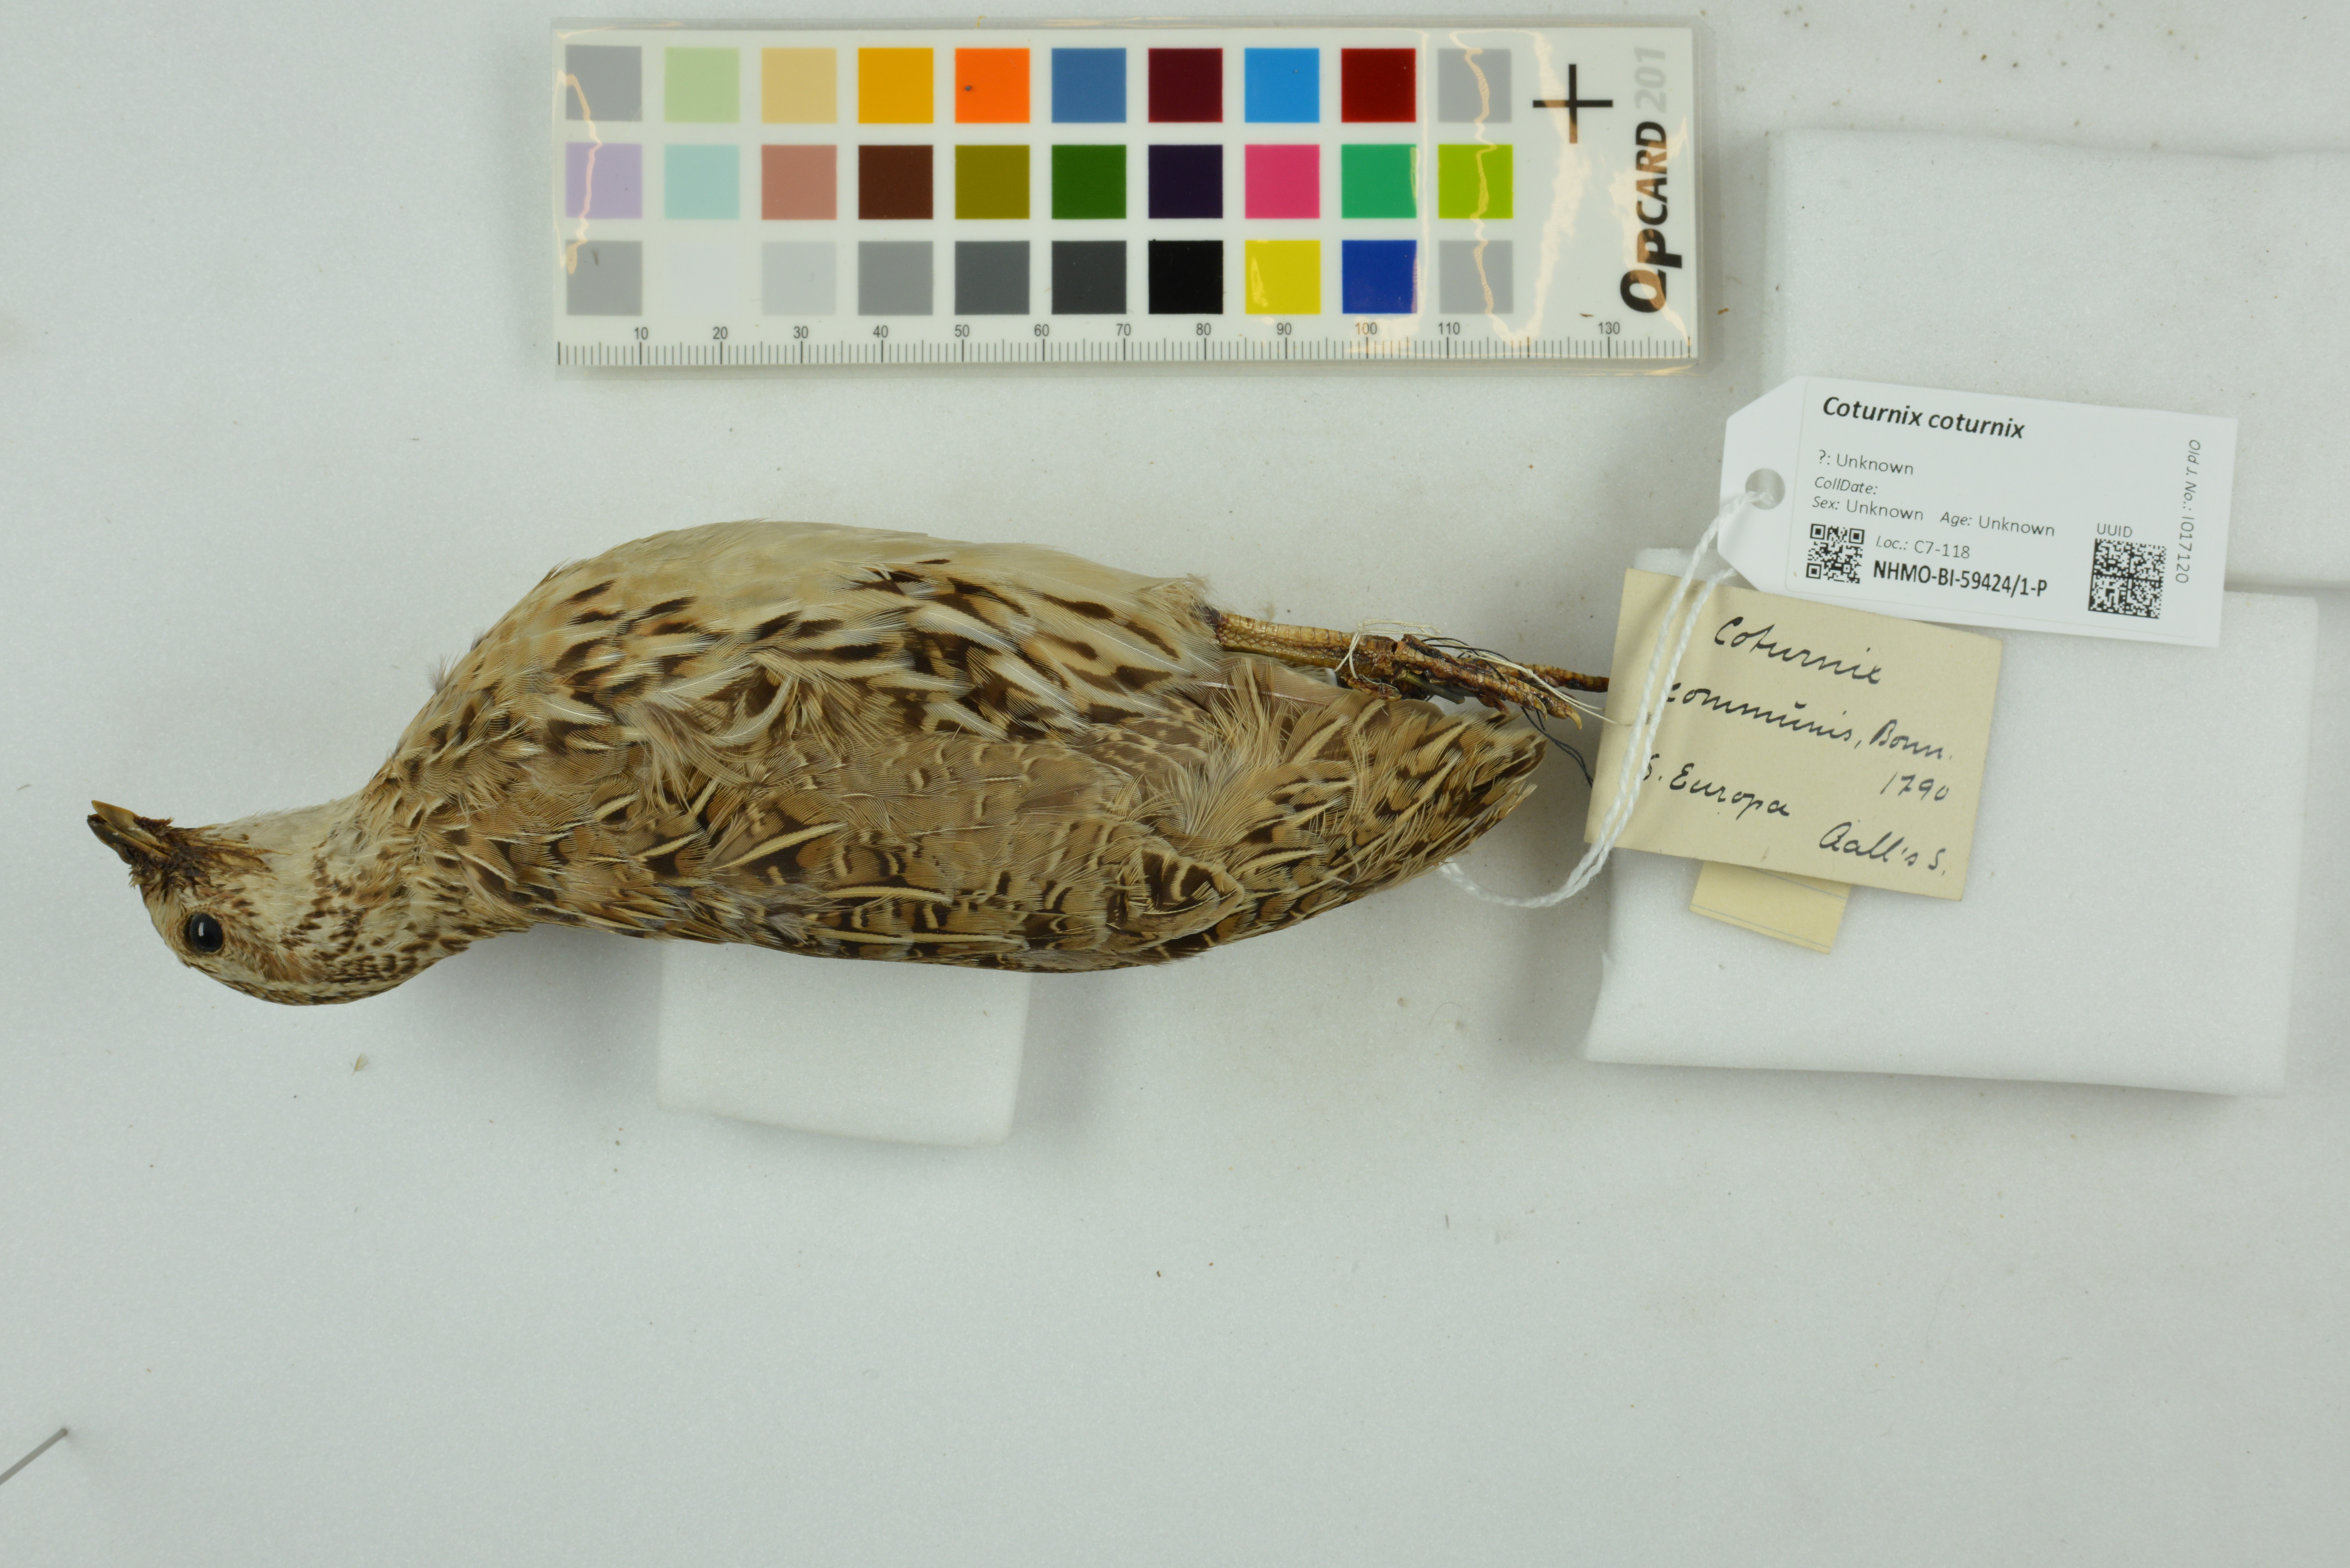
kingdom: Animalia
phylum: Chordata
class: Aves
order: Galliformes
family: Phasianidae
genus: Coturnix
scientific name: Coturnix coturnix
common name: Common quail
